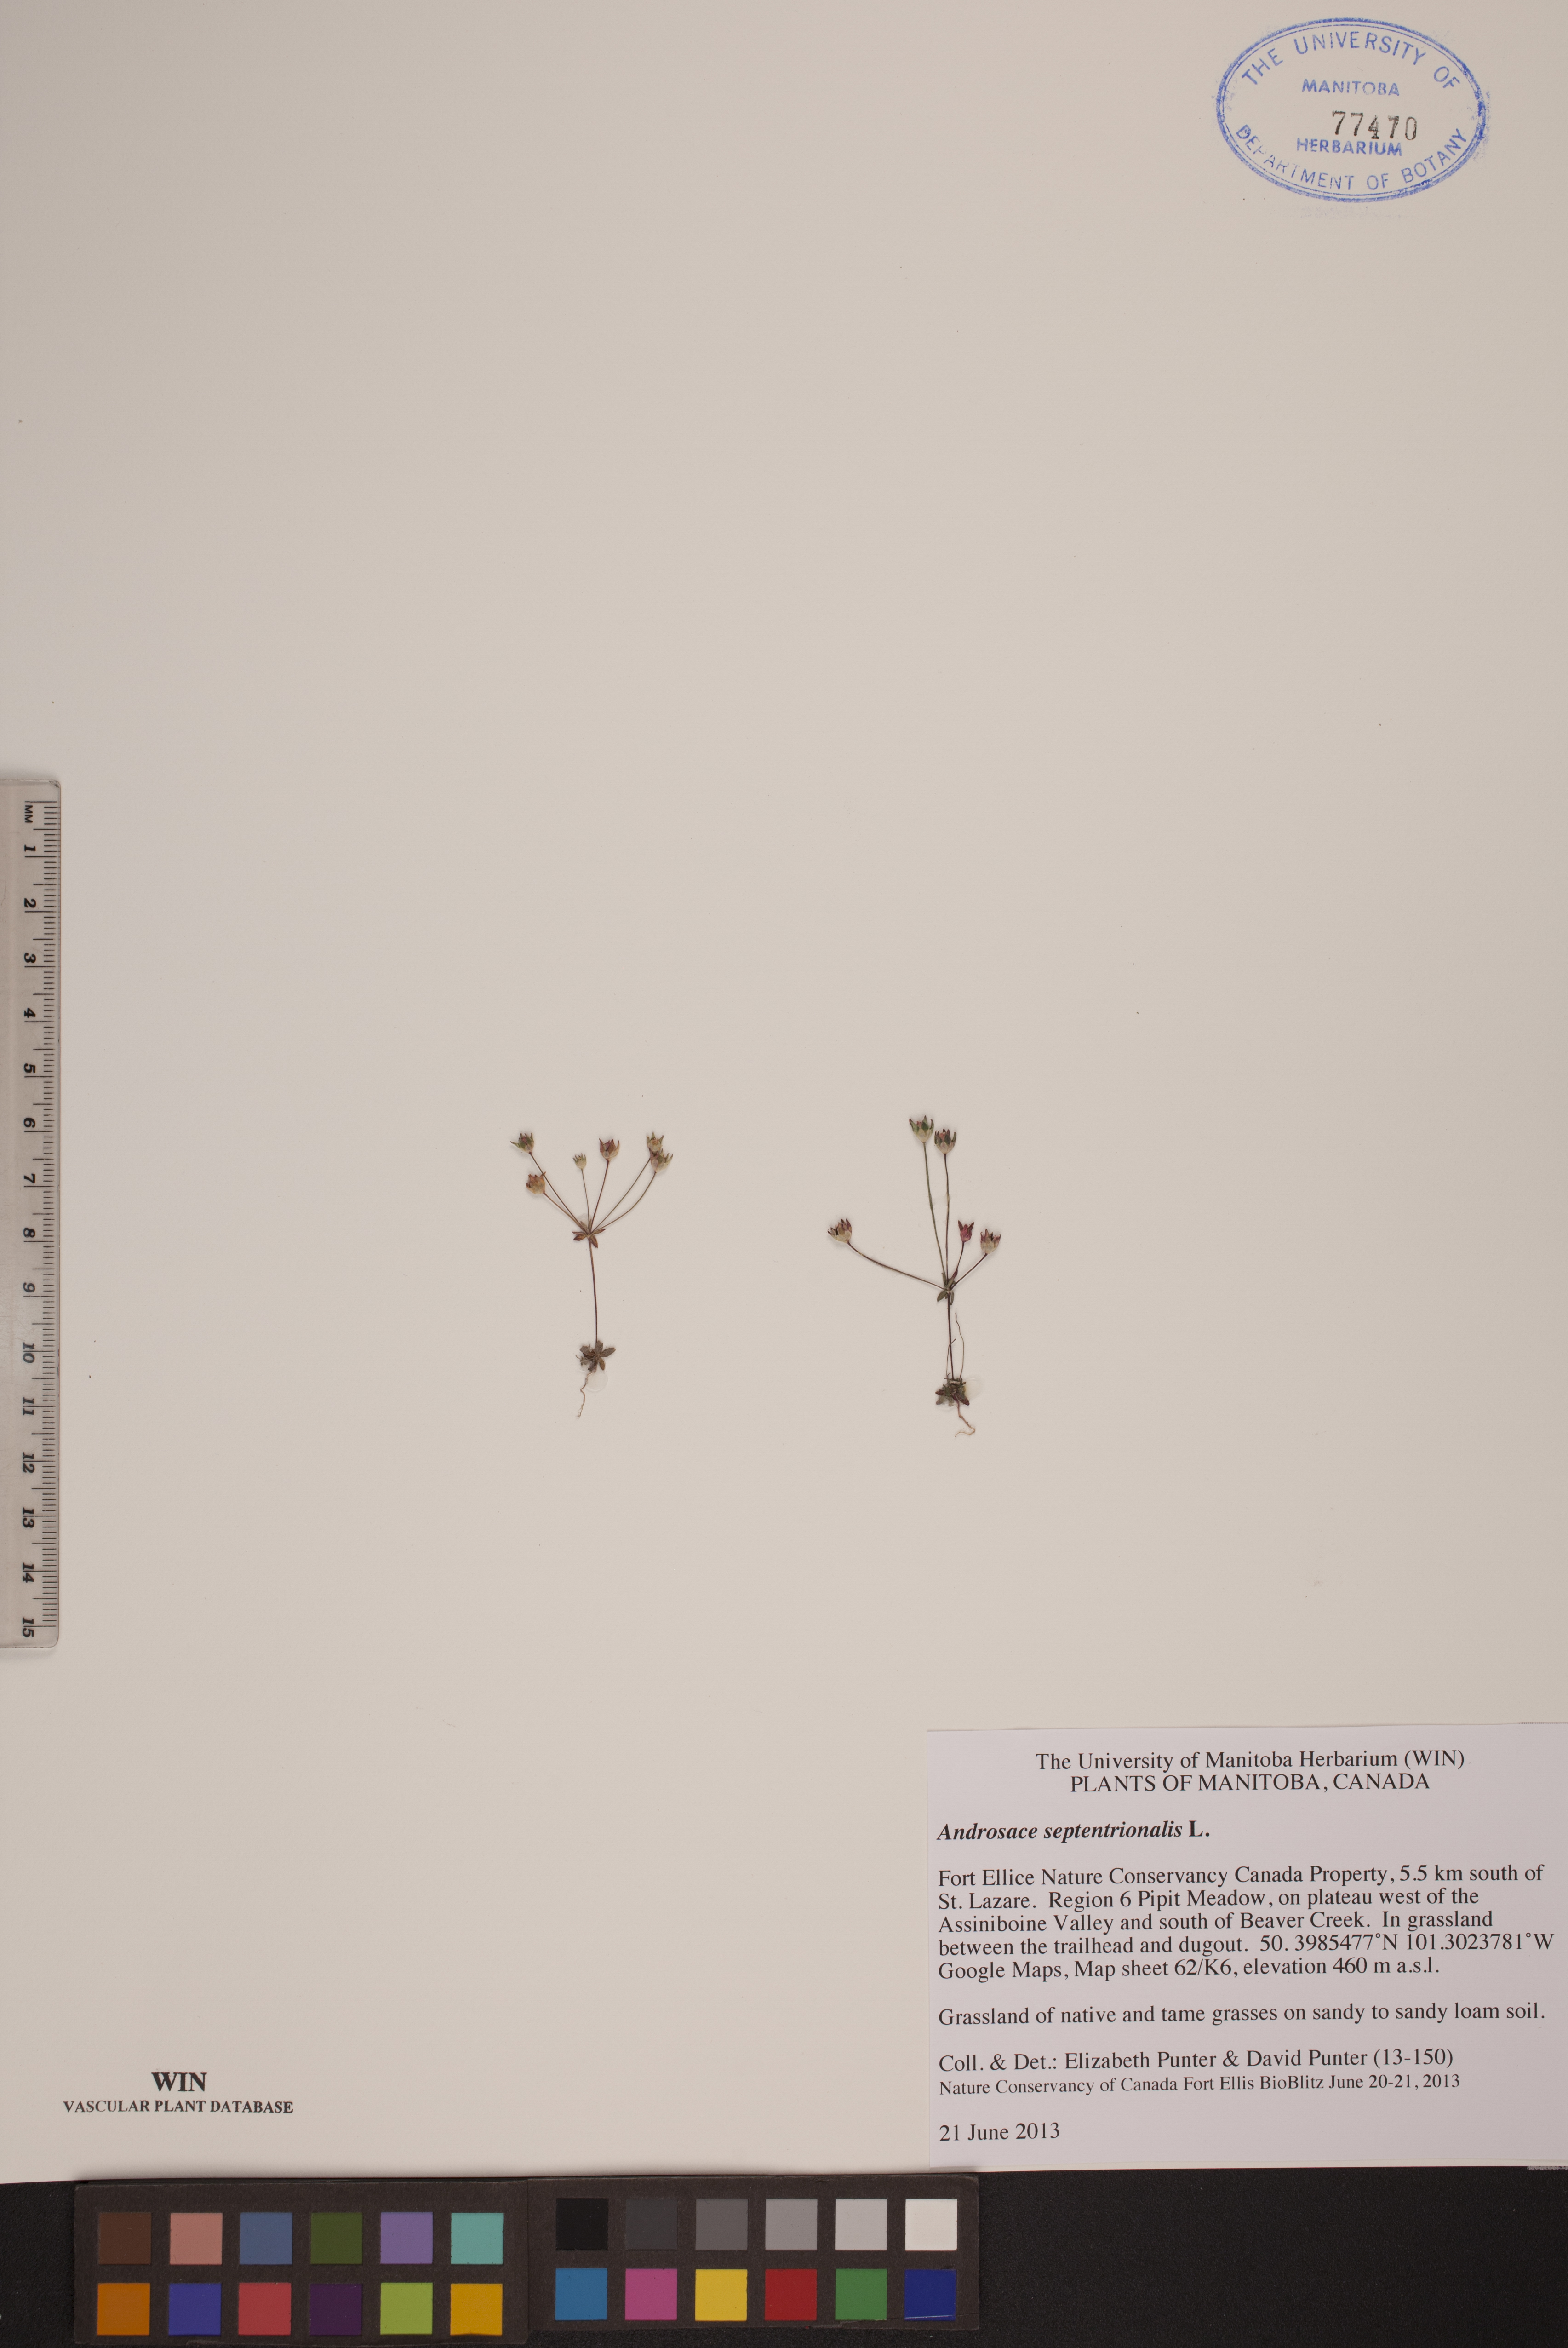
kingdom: Plantae
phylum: Tracheophyta
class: Magnoliopsida
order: Ericales
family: Primulaceae
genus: Androsace
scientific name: Androsace septentrionalis
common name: Hairy northern fairy-candelabra
